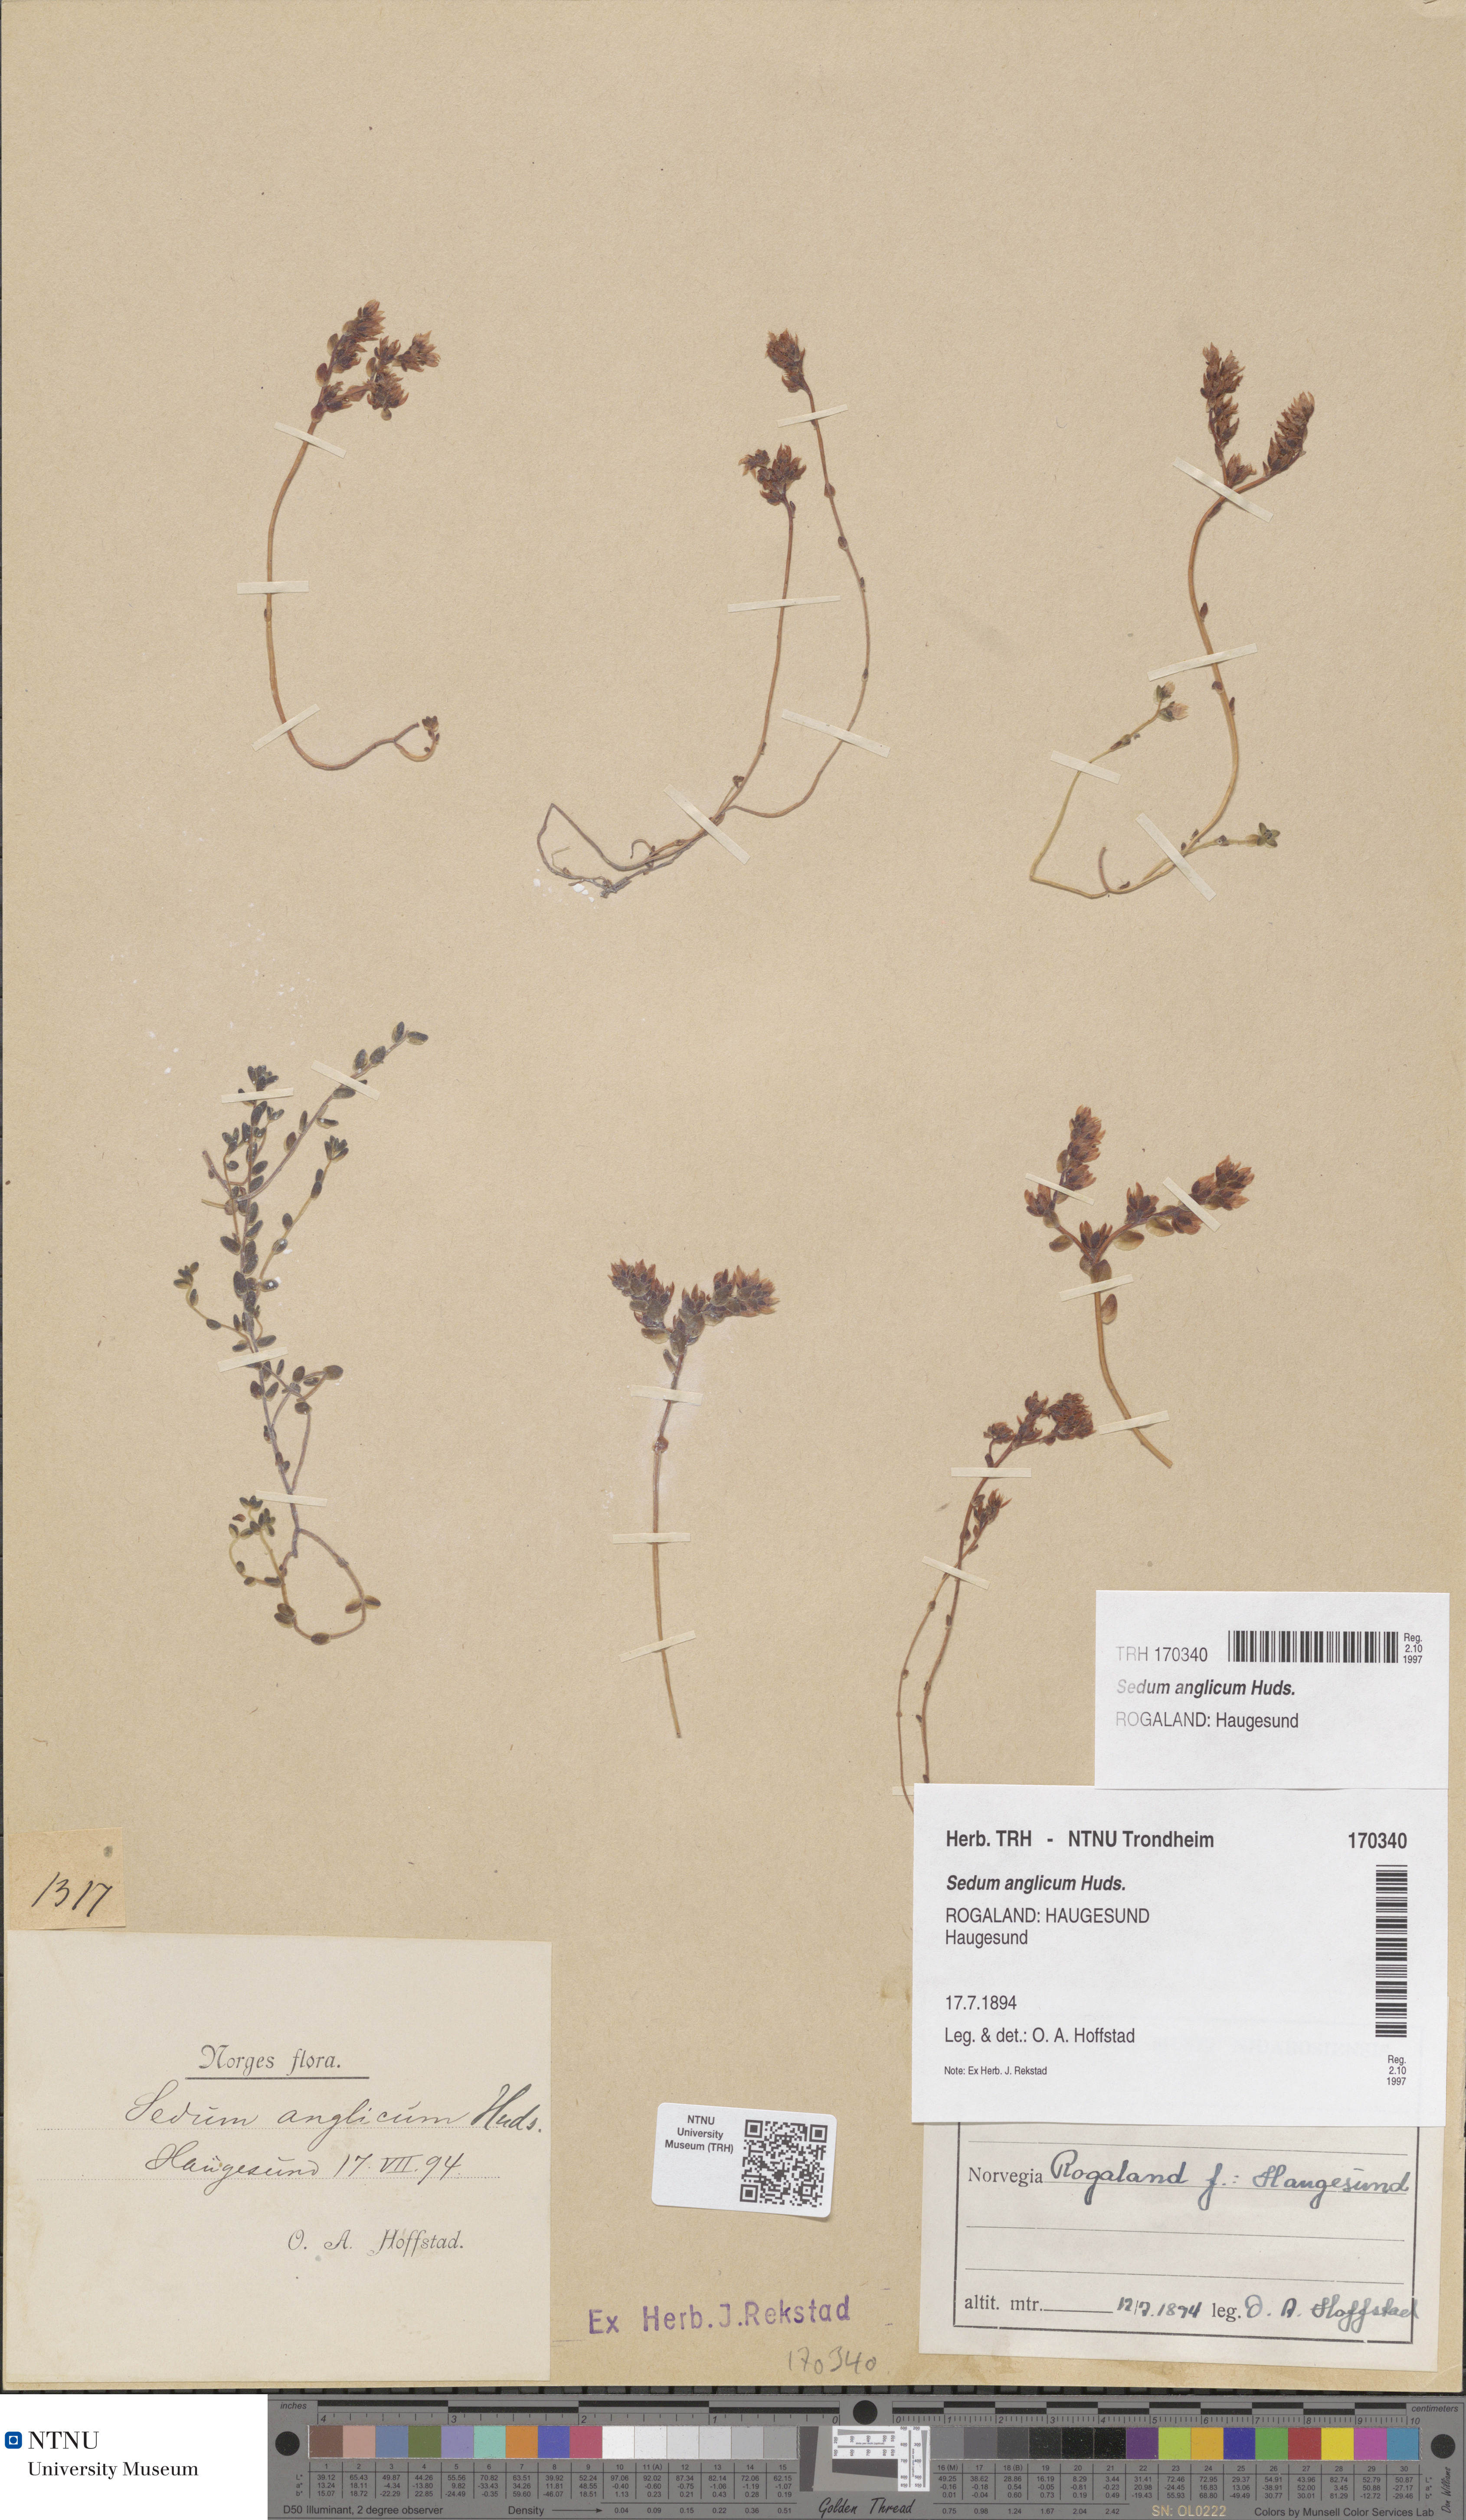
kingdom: Plantae
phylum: Tracheophyta
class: Magnoliopsida
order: Saxifragales
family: Crassulaceae
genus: Sedum
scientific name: Sedum anglicum
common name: English stonecrop
